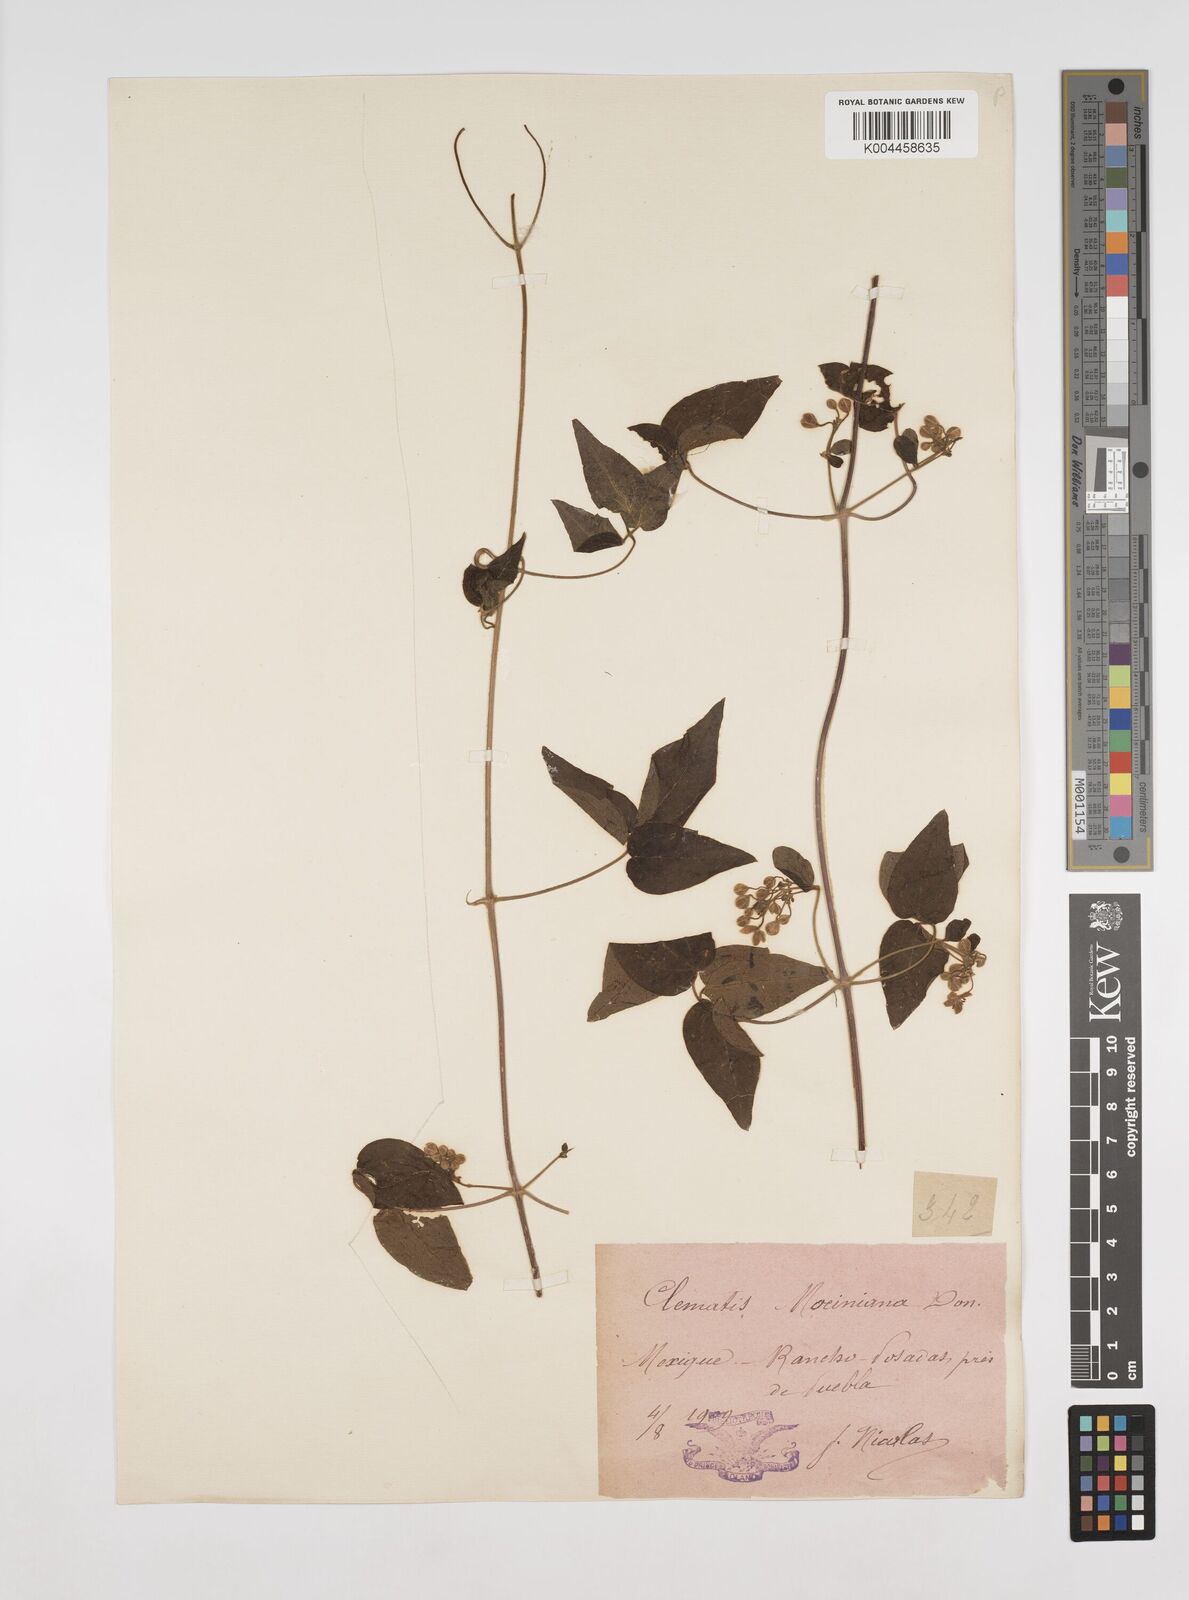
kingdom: Plantae
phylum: Tracheophyta
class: Magnoliopsida
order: Ranunculales
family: Ranunculaceae
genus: Clematis
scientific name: Clematis dioica
